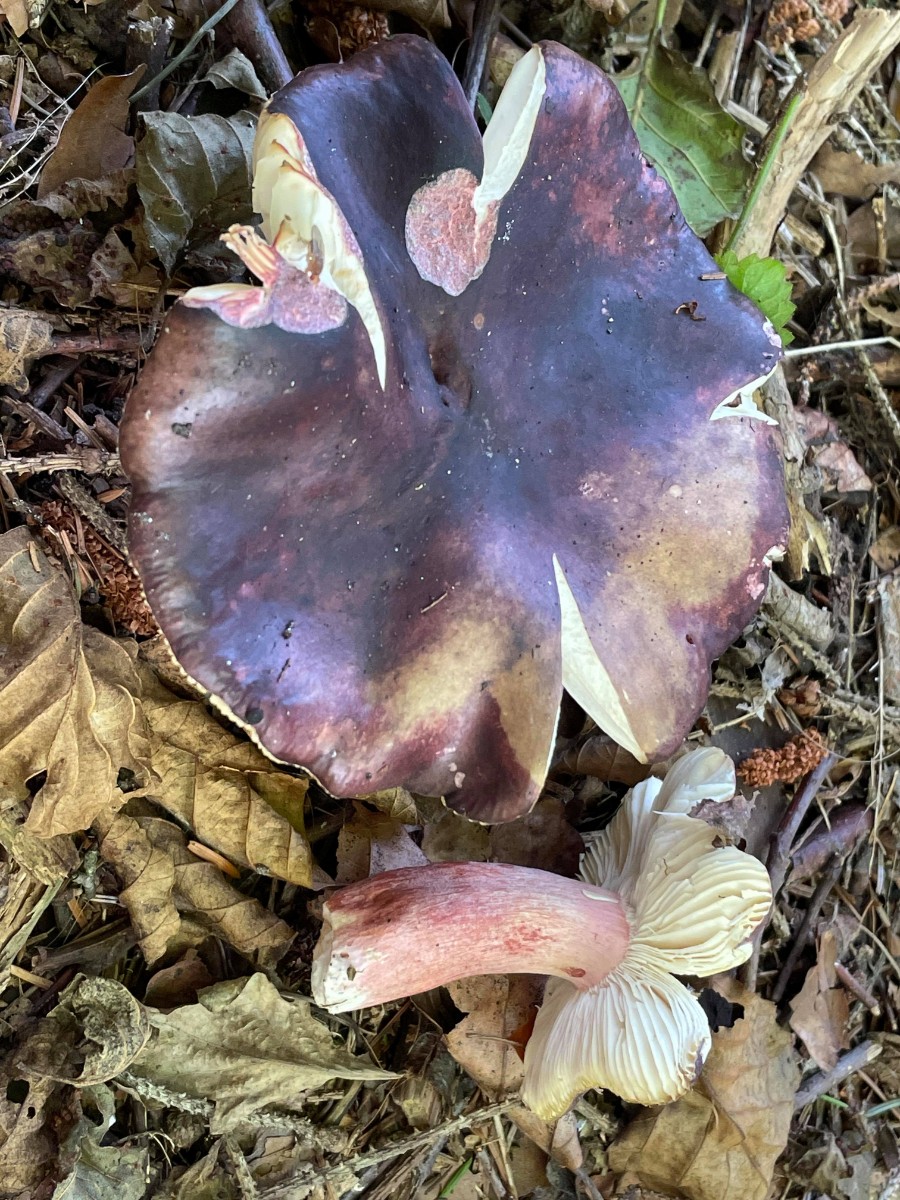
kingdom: Fungi
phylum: Basidiomycota
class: Agaricomycetes
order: Russulales
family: Russulaceae
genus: Russula
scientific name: Russula queletii
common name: Quélets skørhat
